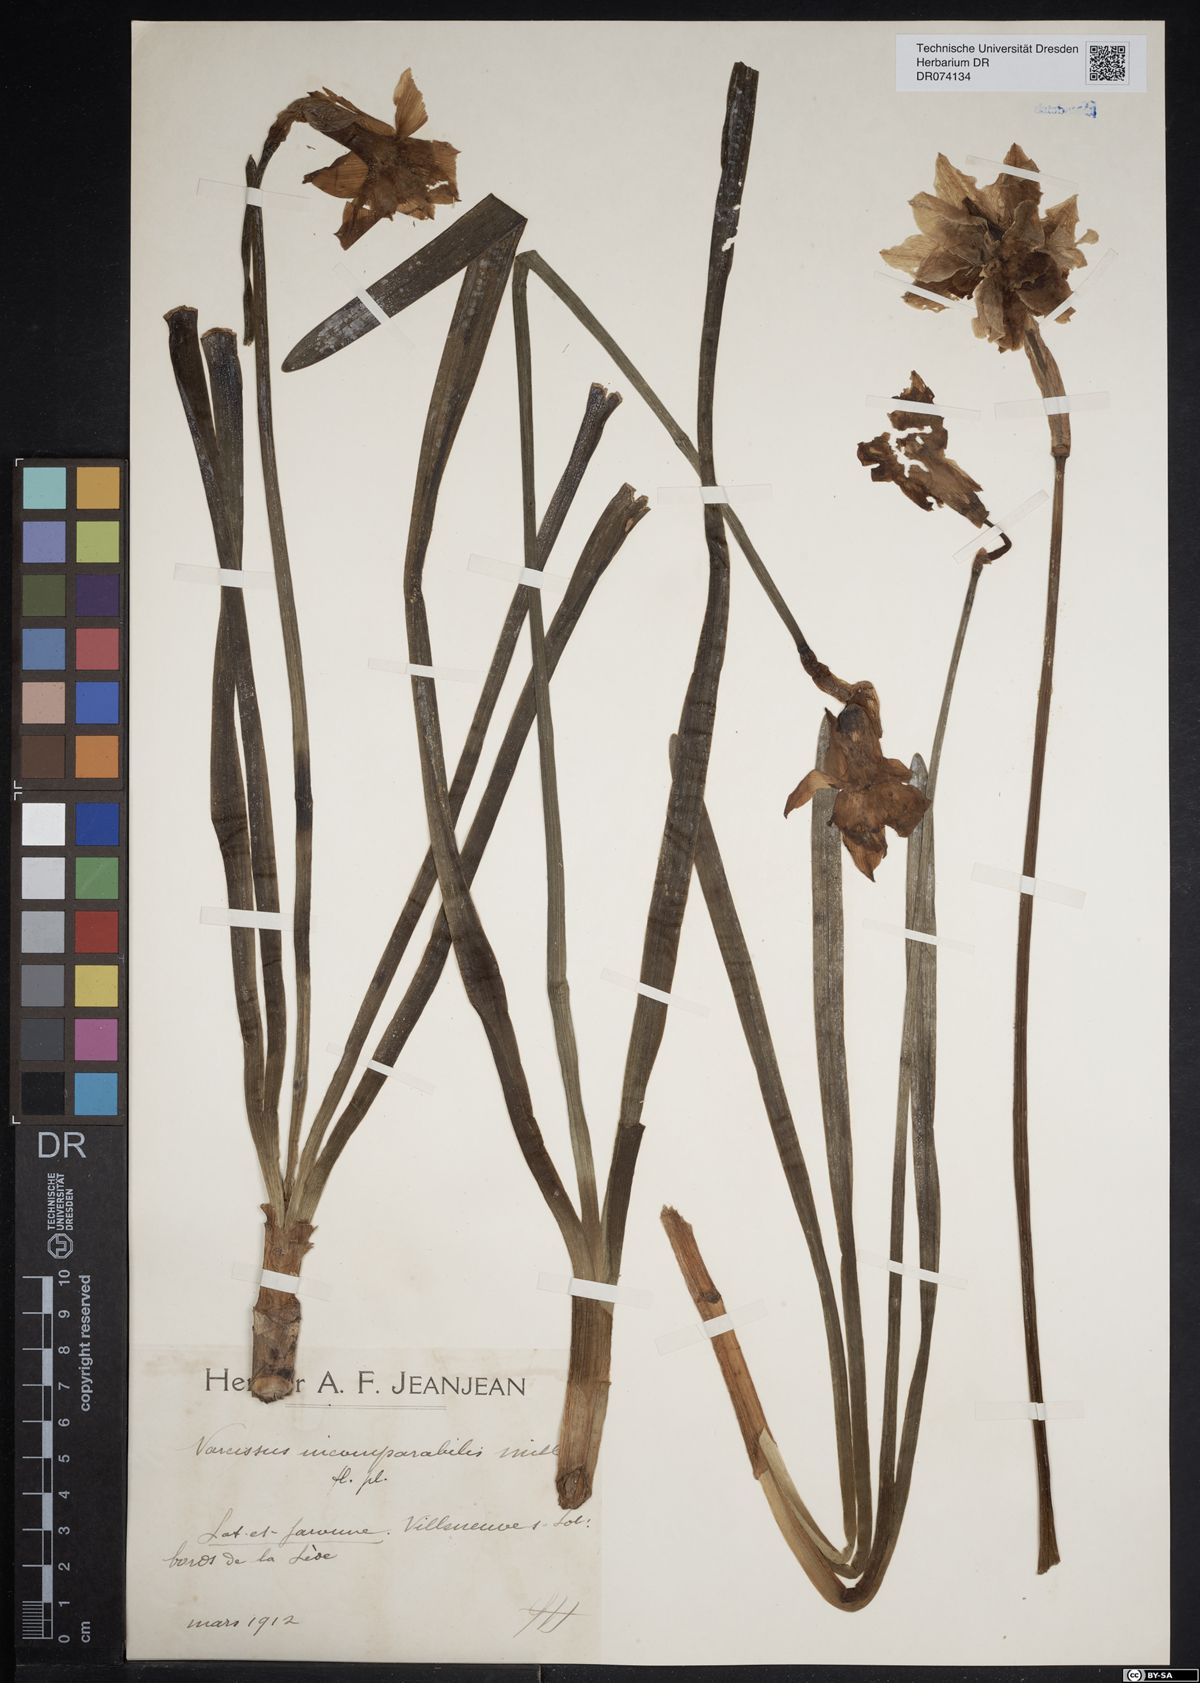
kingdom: Plantae
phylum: Tracheophyta
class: Liliopsida
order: Asparagales
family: Amaryllidaceae
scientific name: Amaryllidaceae
